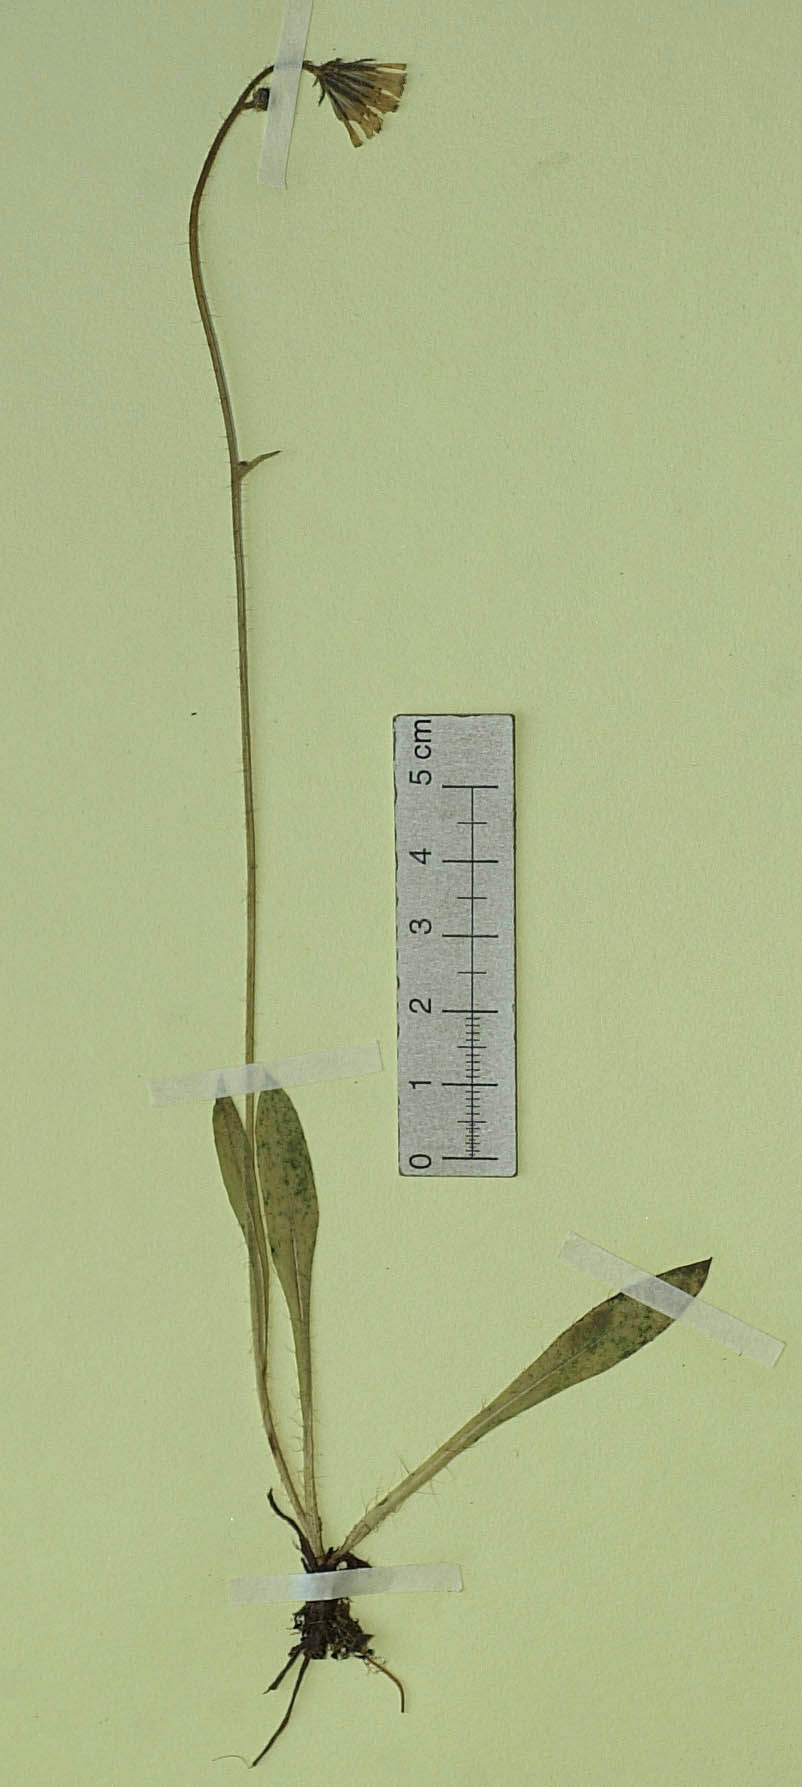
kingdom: Plantae
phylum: Tracheophyta
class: Magnoliopsida
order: Asterales
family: Asteraceae
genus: Pilosella
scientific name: Pilosella leptophyton
